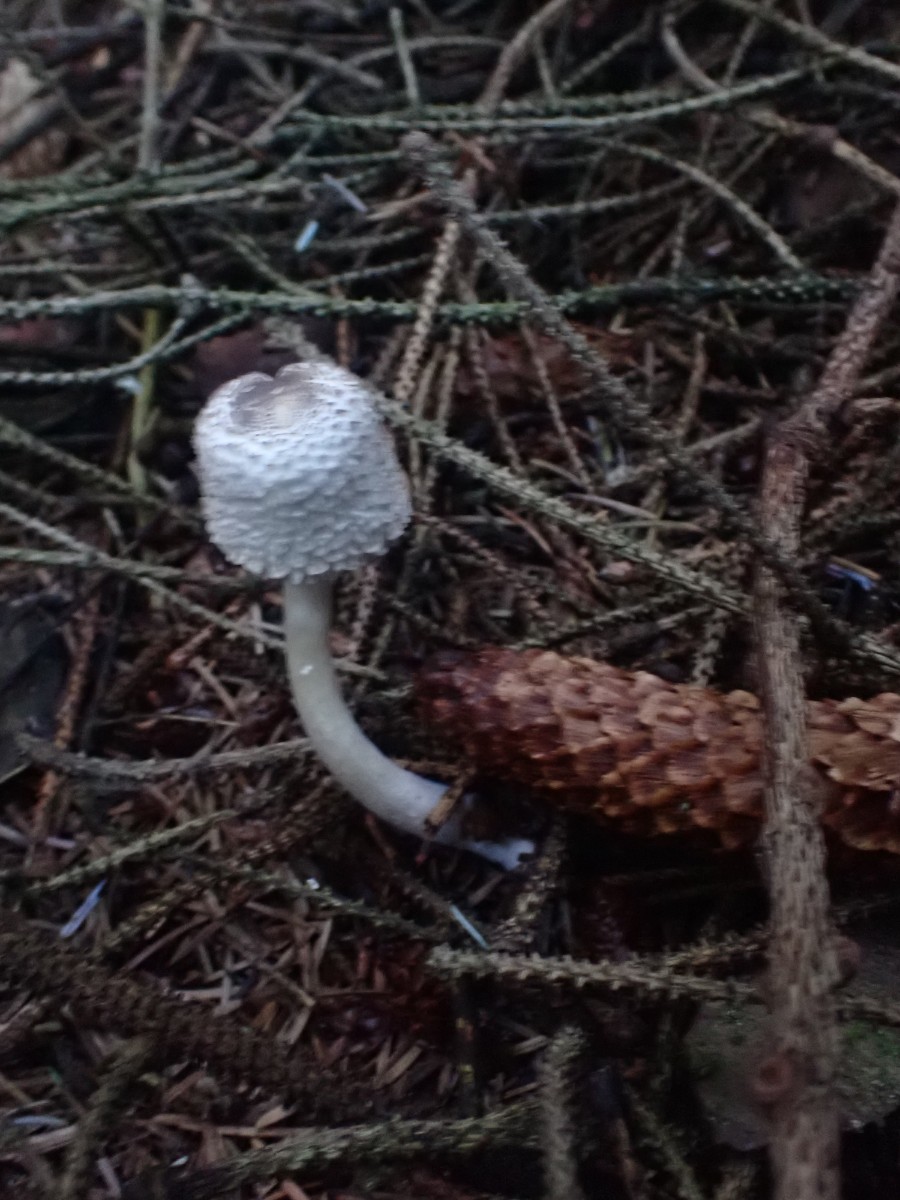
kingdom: Fungi
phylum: Basidiomycota
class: Agaricomycetes
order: Agaricales
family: Agaricaceae
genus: Leucoagaricus
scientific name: Leucoagaricus nympharum
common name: gran-silkehat
